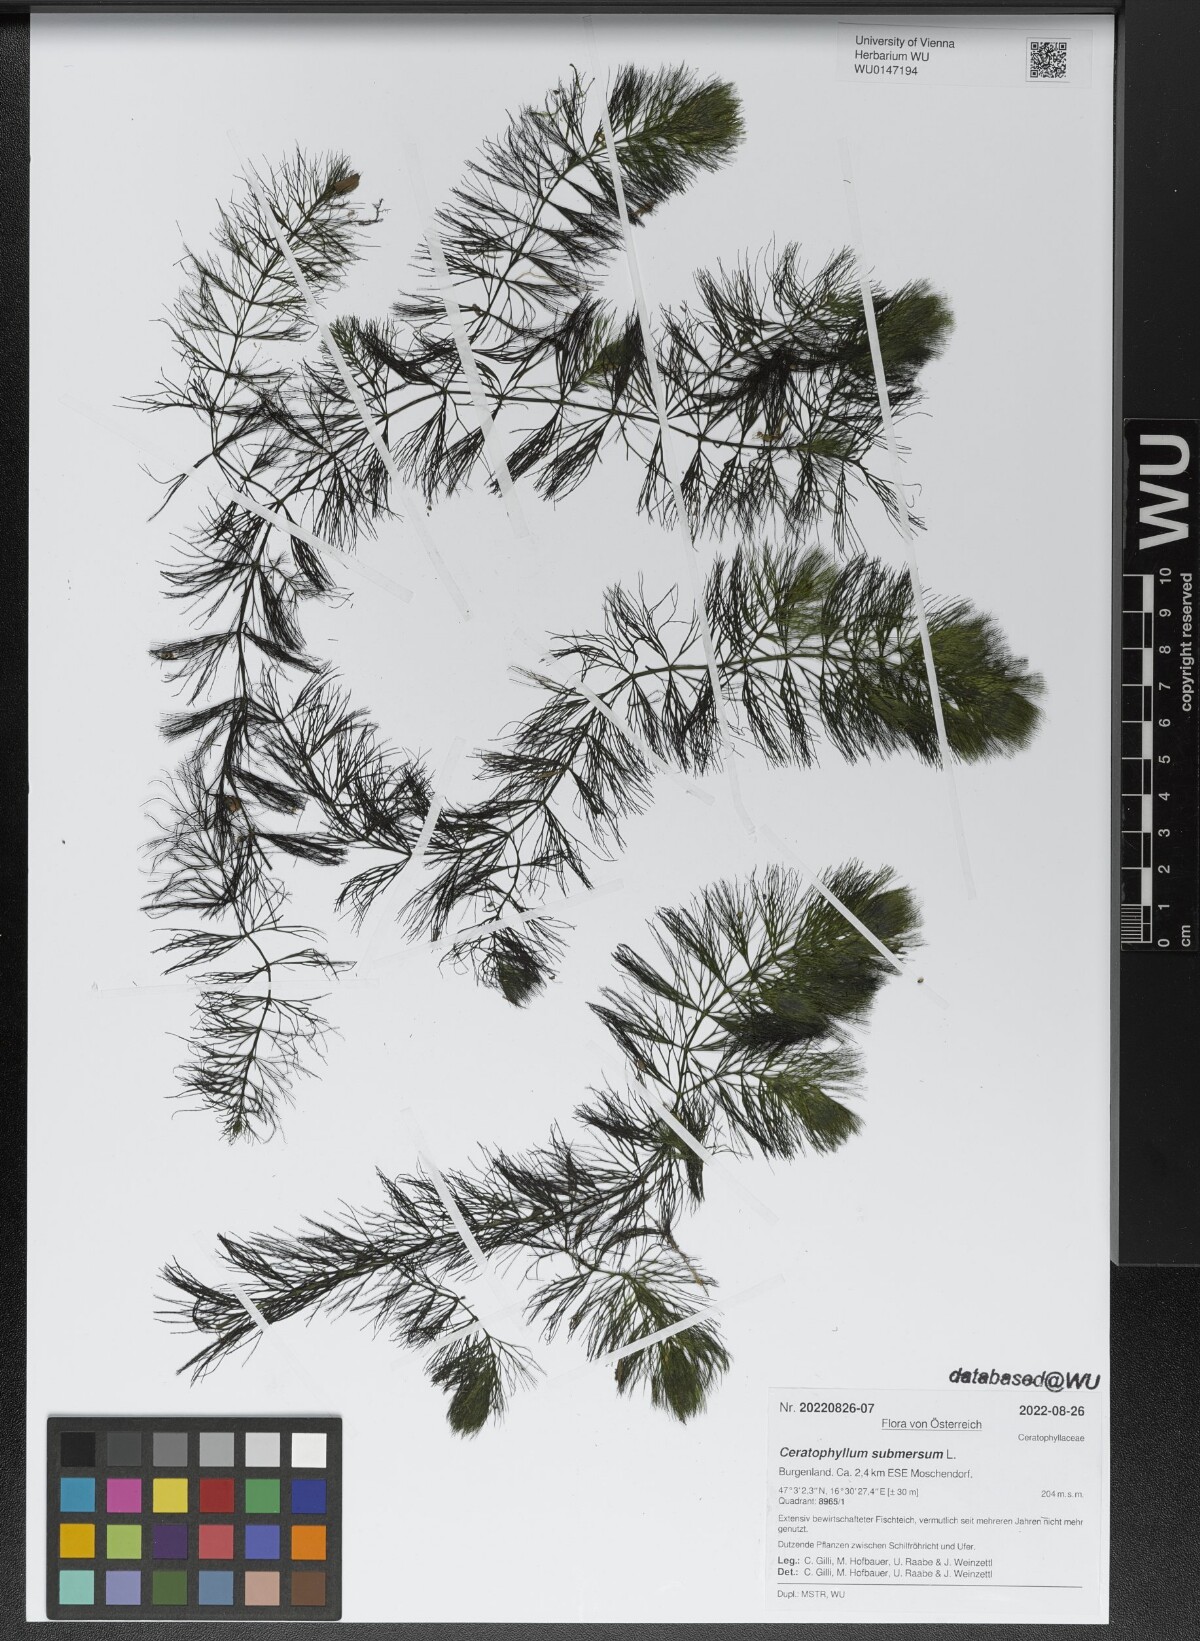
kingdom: Plantae
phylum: Tracheophyta
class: Magnoliopsida
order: Ceratophyllales
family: Ceratophyllaceae
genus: Ceratophyllum
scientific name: Ceratophyllum submersum
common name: Soft hornwort
